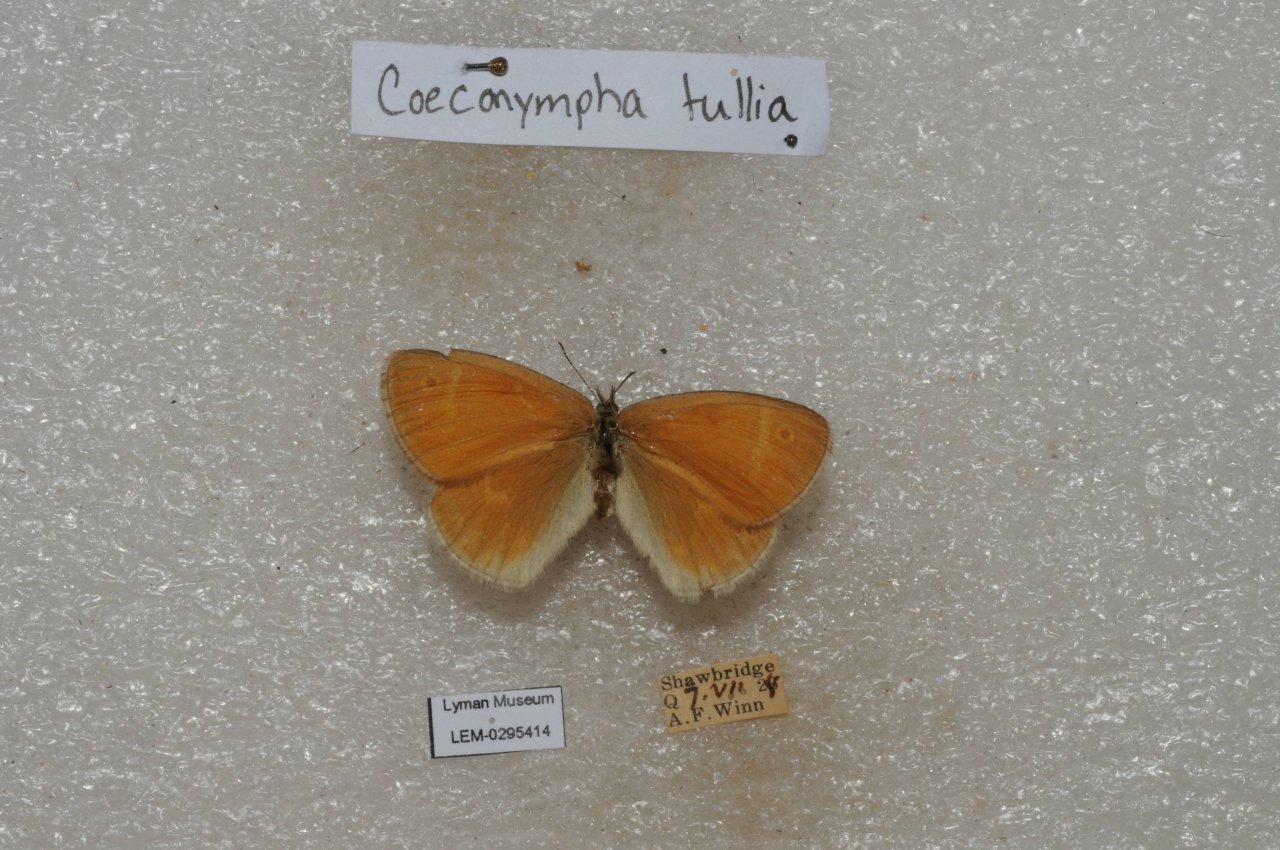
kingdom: Animalia
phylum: Arthropoda
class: Insecta
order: Lepidoptera
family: Nymphalidae
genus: Coenonympha
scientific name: Coenonympha tullia
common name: Large Heath
